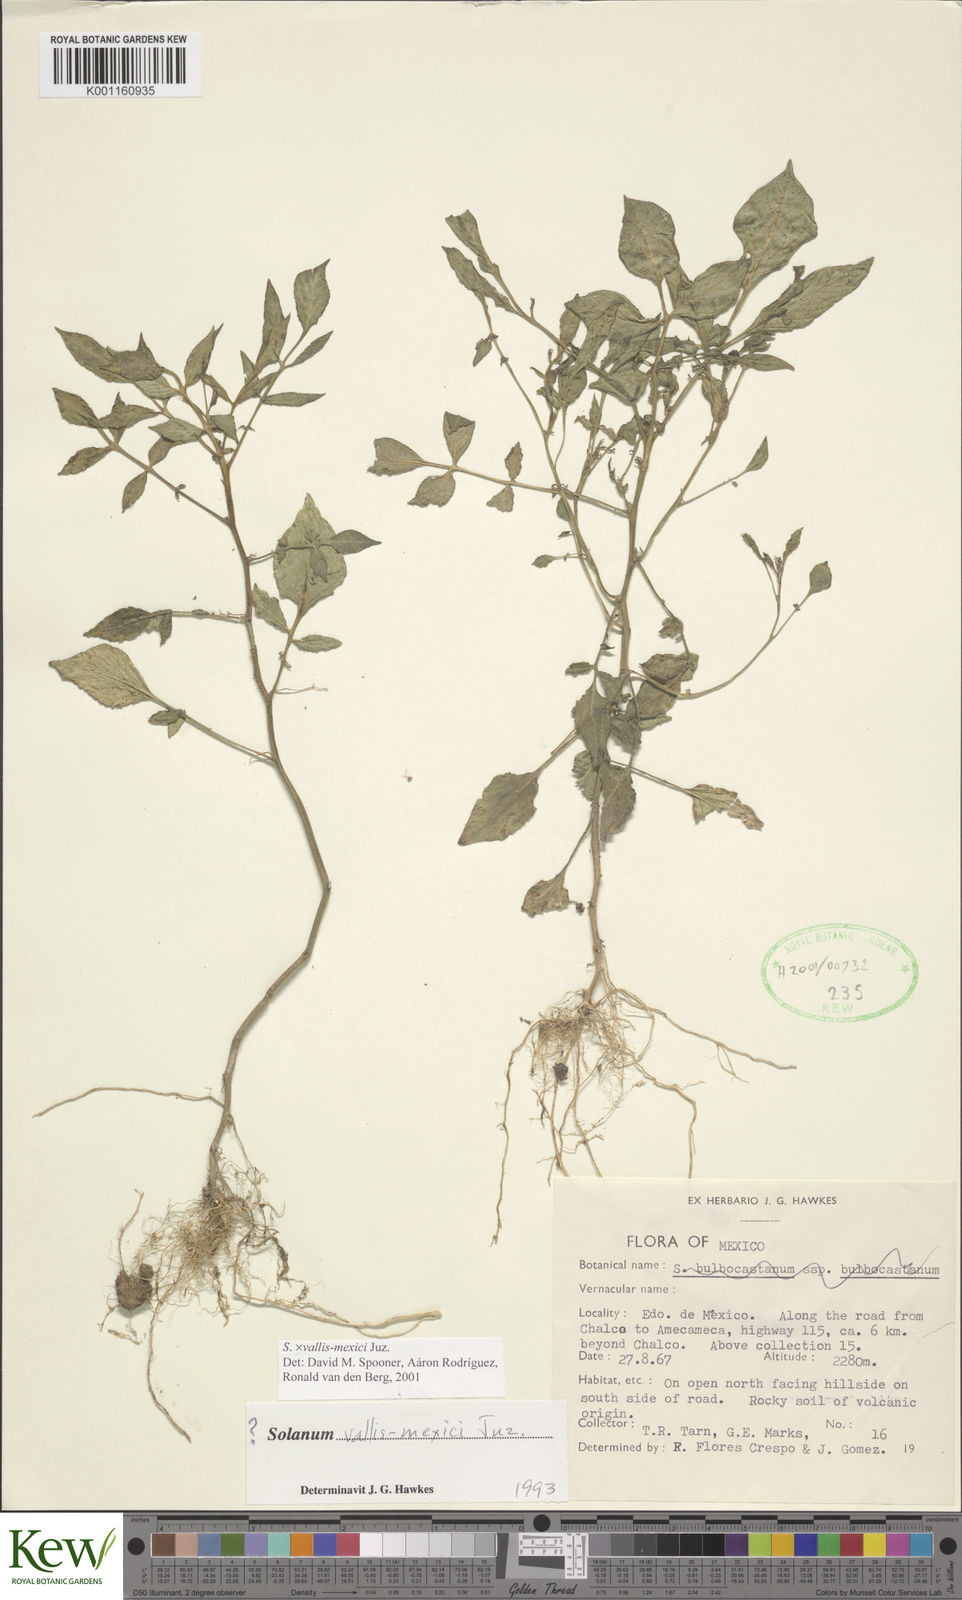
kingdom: Plantae
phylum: Tracheophyta
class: Magnoliopsida
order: Solanales
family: Solanaceae
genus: Solanum
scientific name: Solanum vallis-mexici
